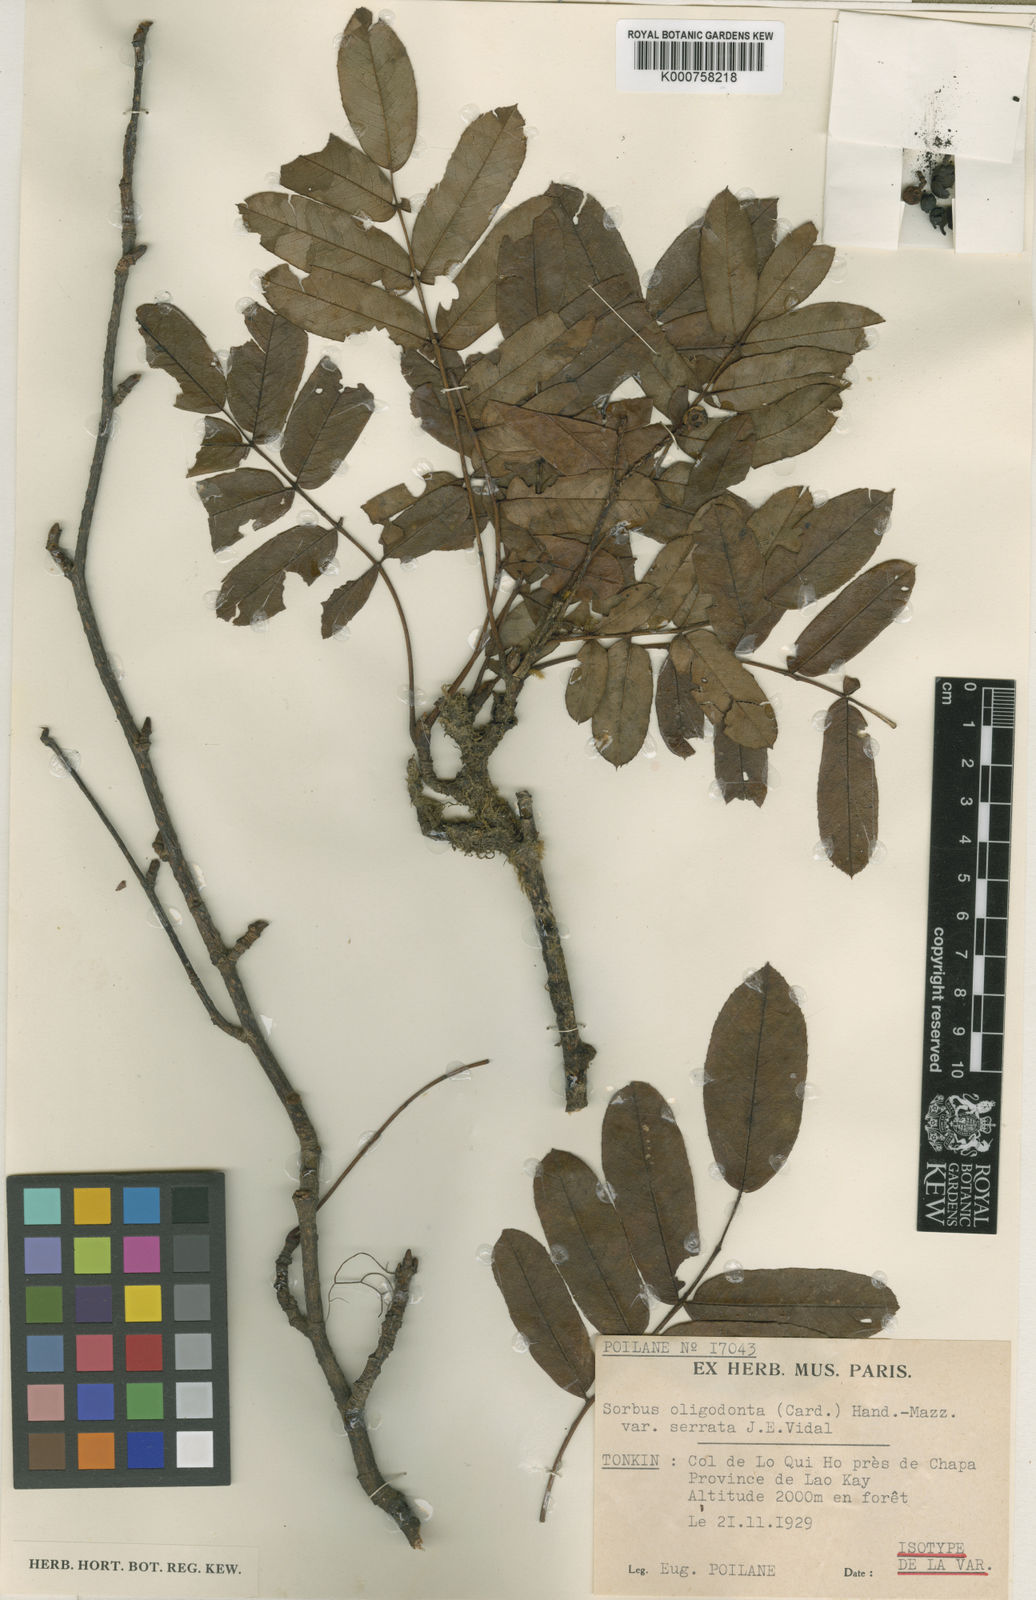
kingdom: Plantae
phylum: Tracheophyta
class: Magnoliopsida
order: Rosales
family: Rosaceae
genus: Sorbus
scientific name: Sorbus oligodonta
